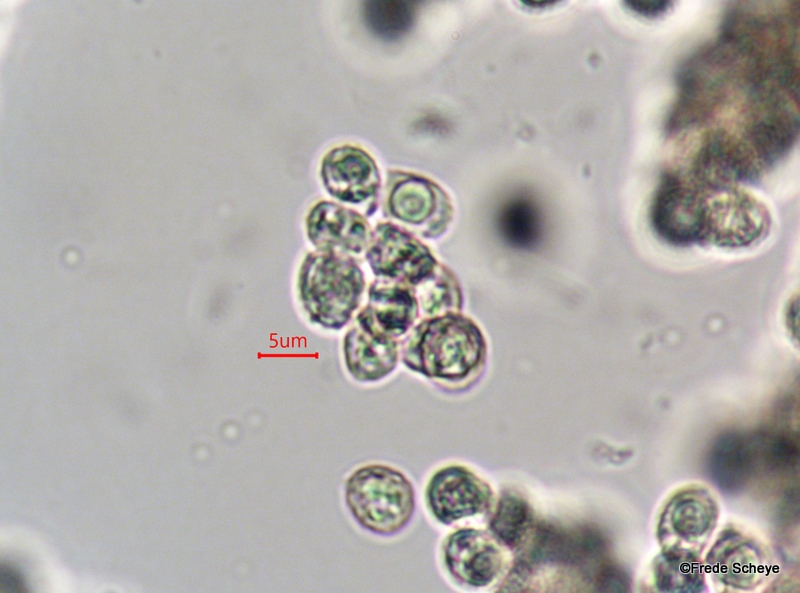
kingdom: Fungi
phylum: Basidiomycota
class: Agaricomycetes
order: Agaricales
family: Crepidotaceae
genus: Crepidotus
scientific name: Crepidotus cesatii
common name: almindelig muslingesvamp
